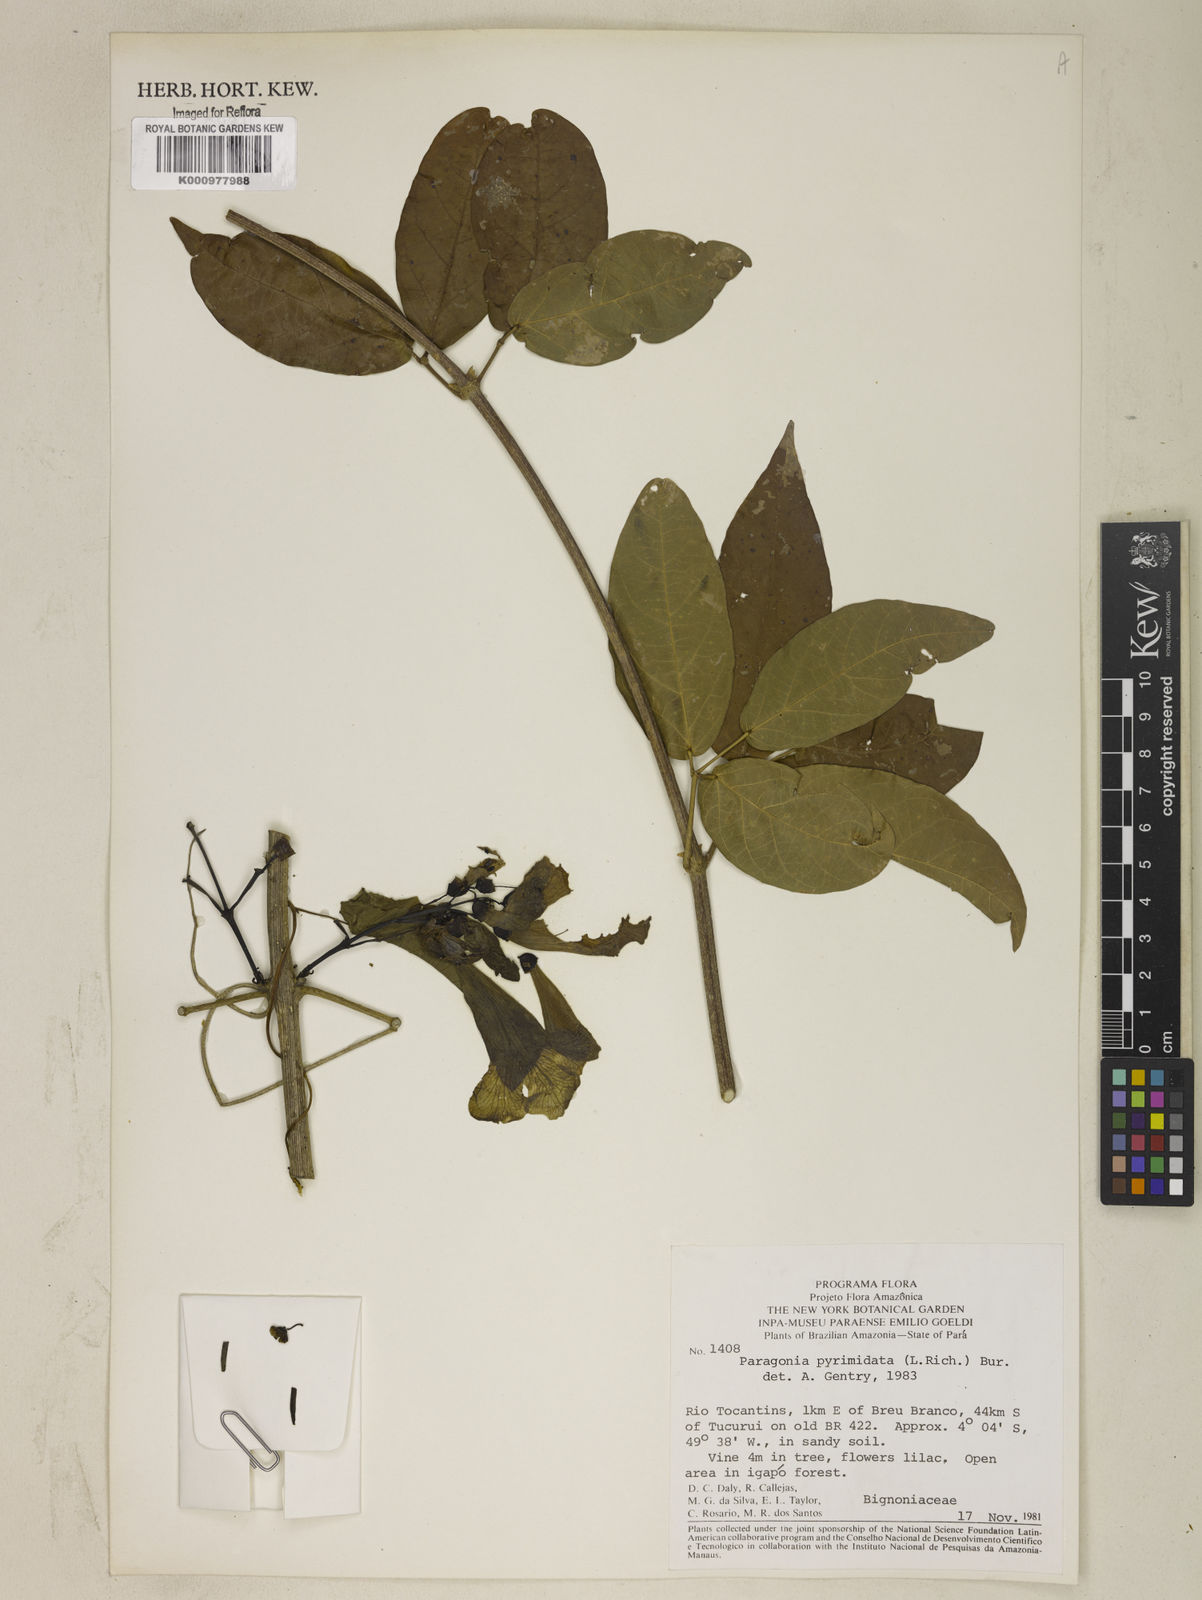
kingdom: Plantae
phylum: Tracheophyta
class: Magnoliopsida
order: Lamiales
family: Bignoniaceae
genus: Tanaecium
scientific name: Tanaecium pyramidatum
